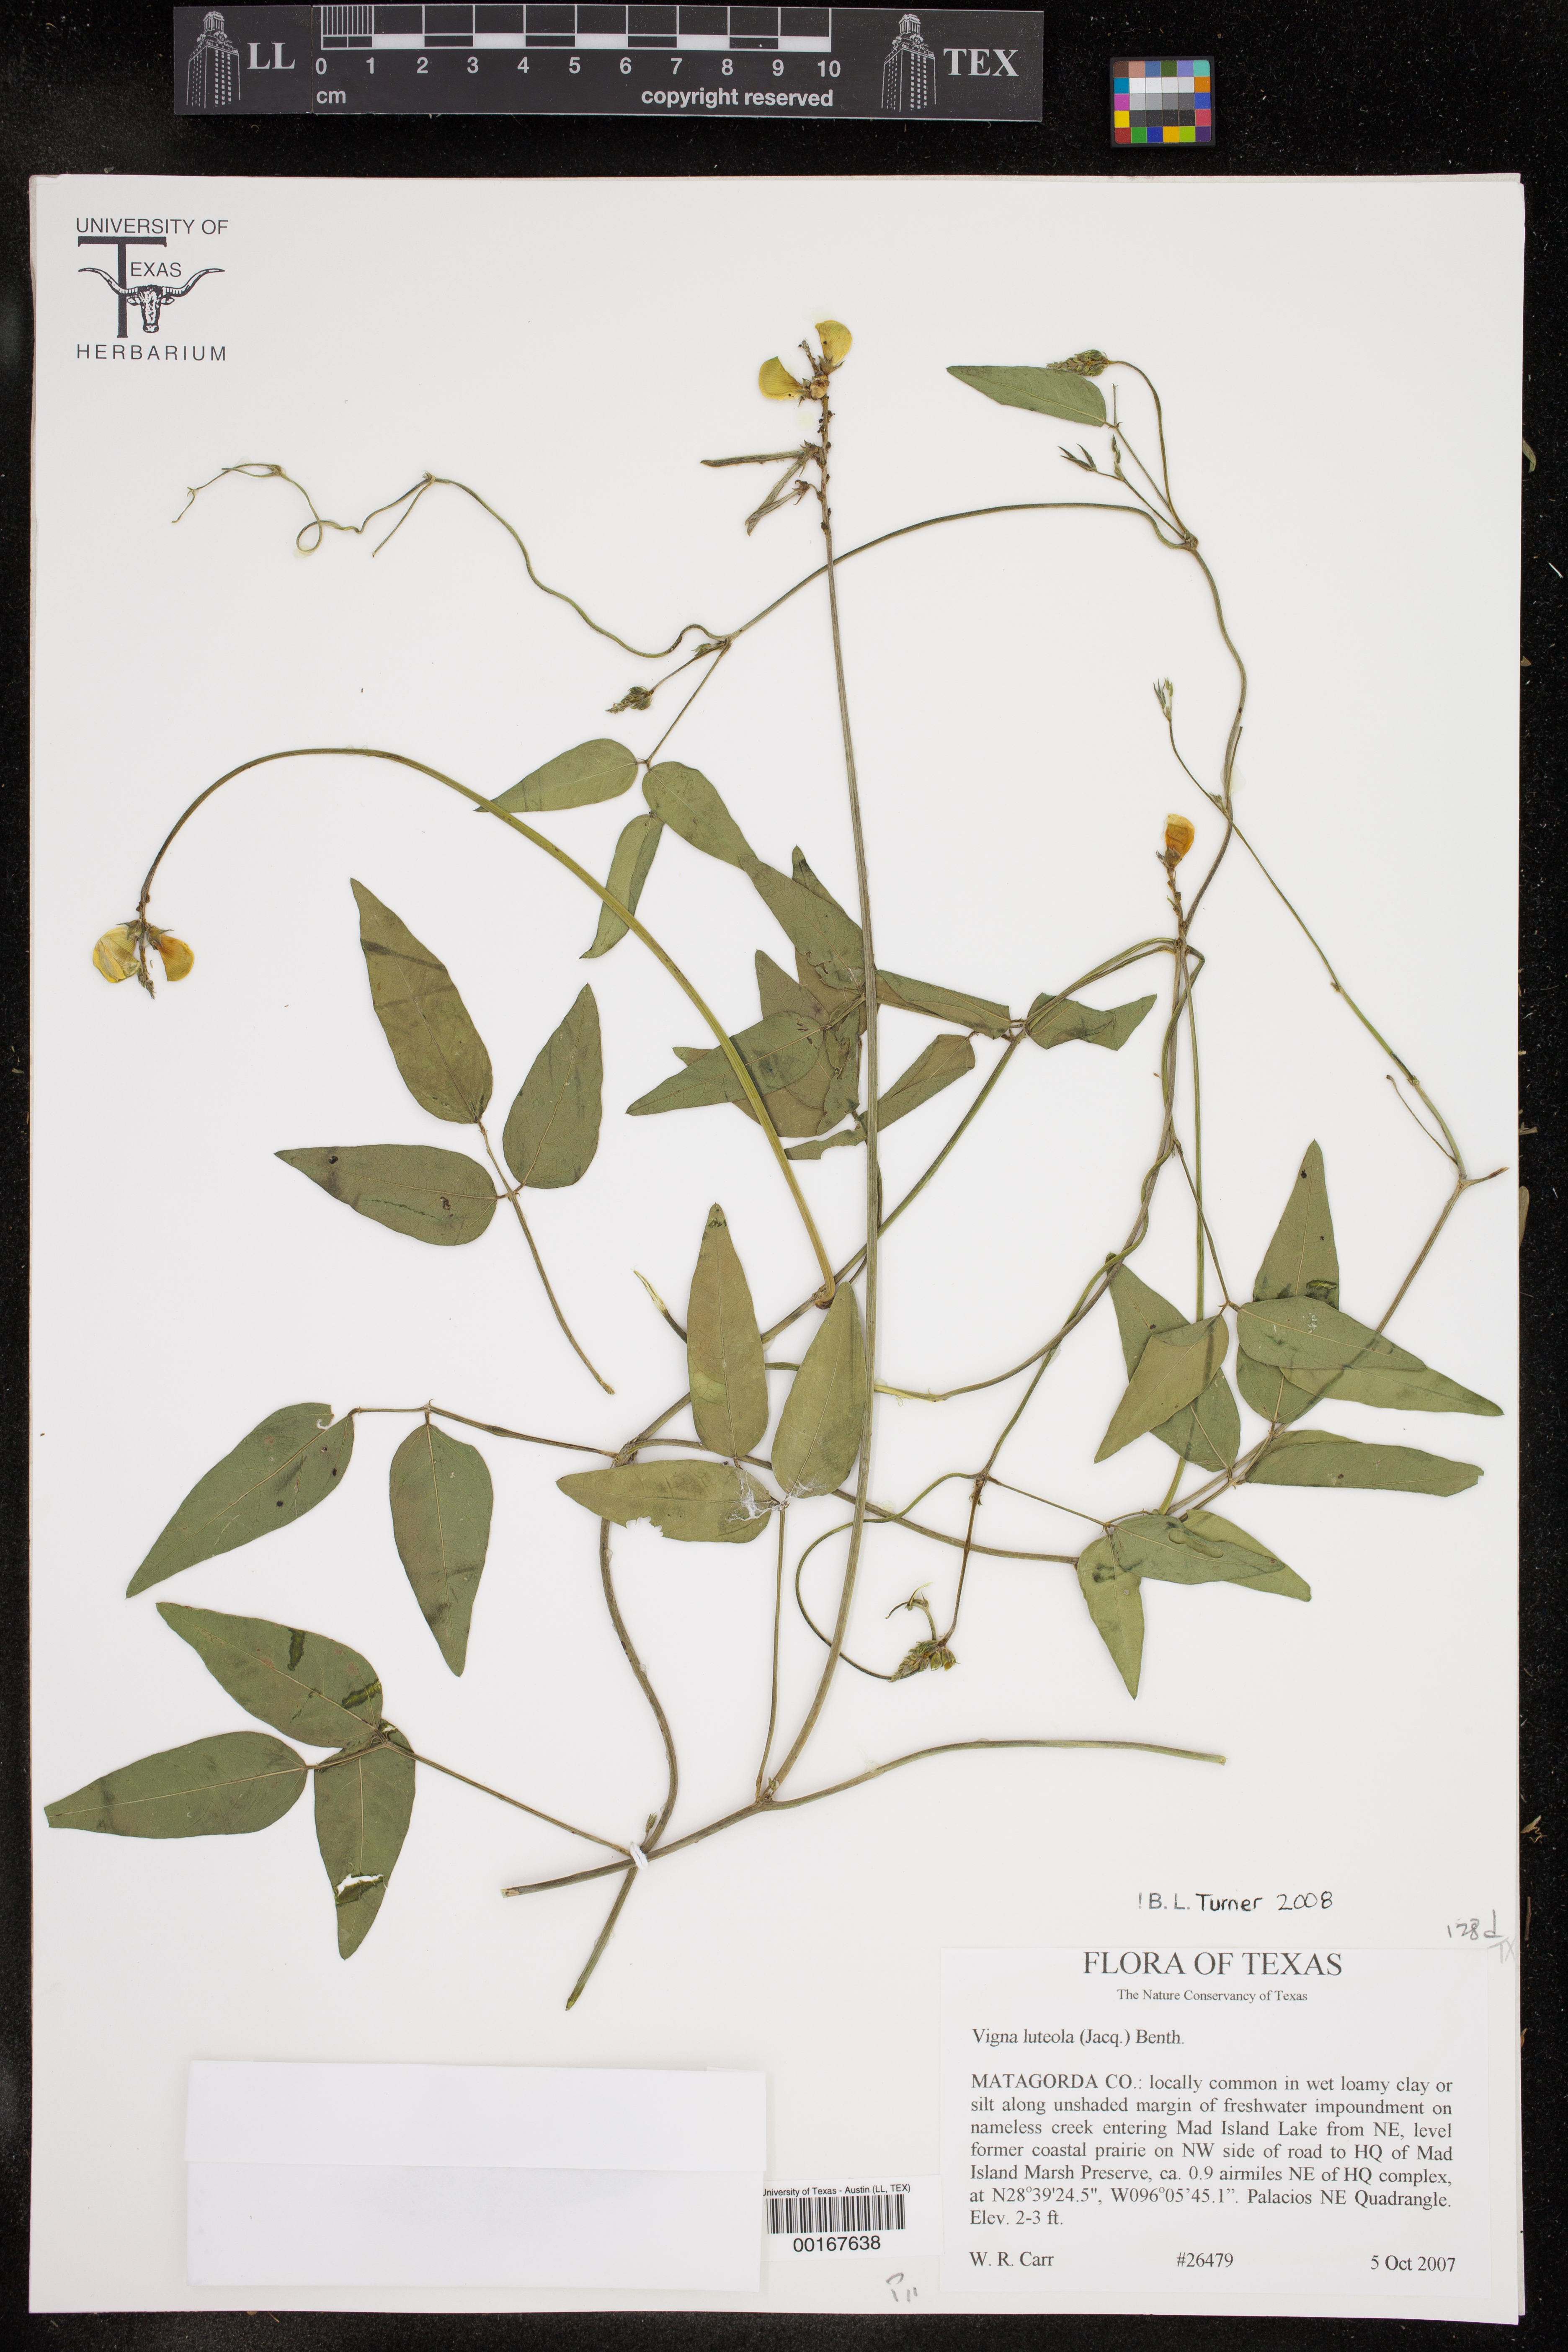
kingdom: Plantae
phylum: Tracheophyta
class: Magnoliopsida
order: Fabales
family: Fabaceae
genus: Vigna
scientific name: Vigna luteola
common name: Hairypod cowpea
